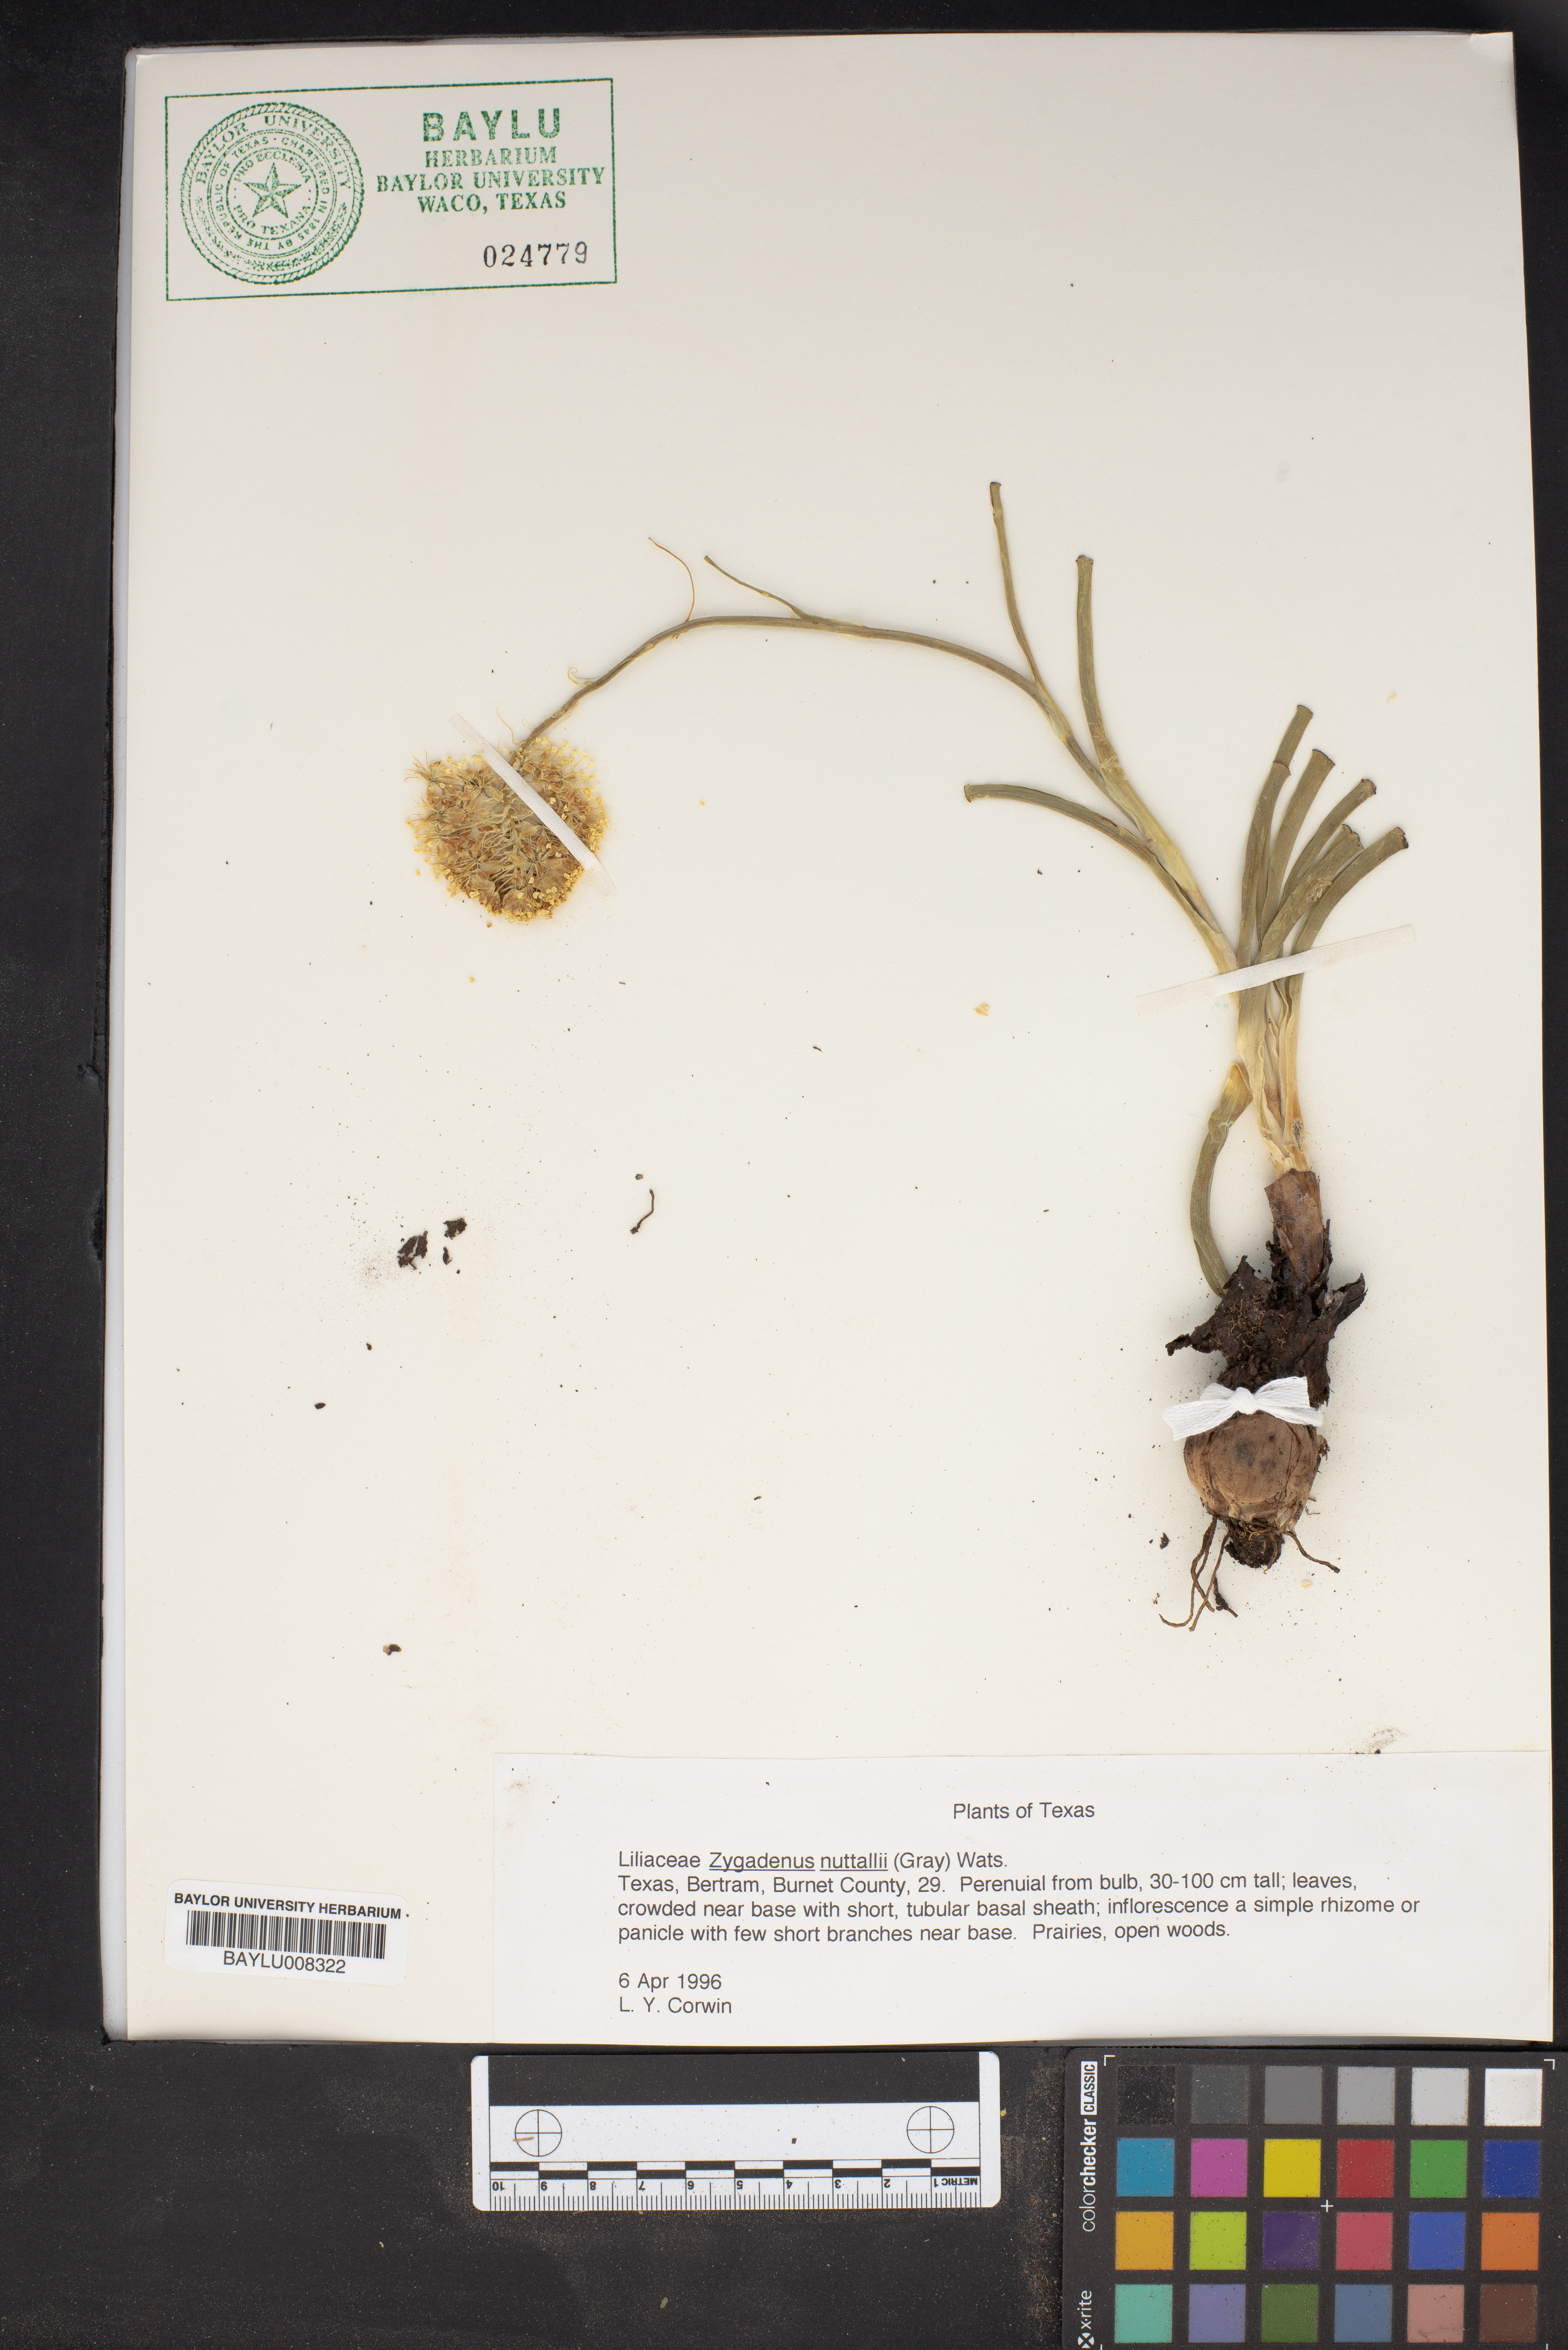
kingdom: Plantae
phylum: Tracheophyta
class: Liliopsida
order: Liliales
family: Melanthiaceae
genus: Toxicoscordion
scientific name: Toxicoscordion nuttallii
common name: Poison sego
